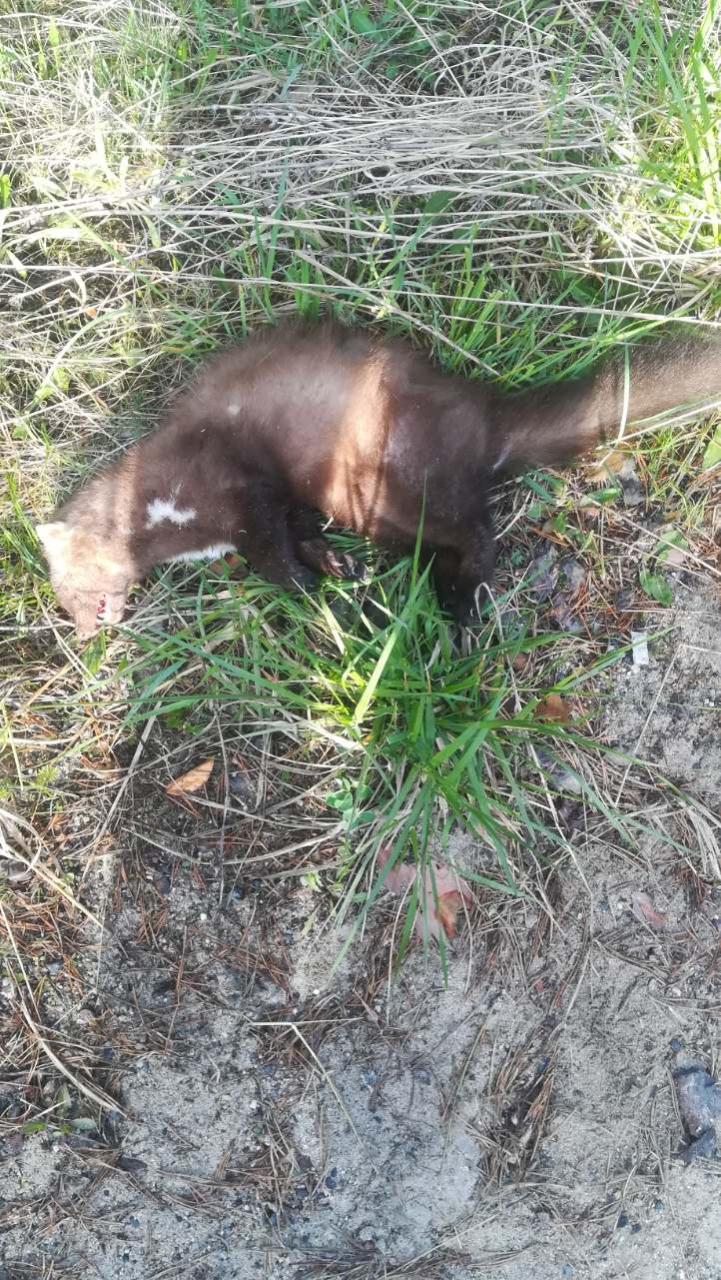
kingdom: Animalia
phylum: Chordata
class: Mammalia
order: Carnivora
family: Mustelidae
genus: Martes
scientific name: Martes foina
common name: Beech marten
